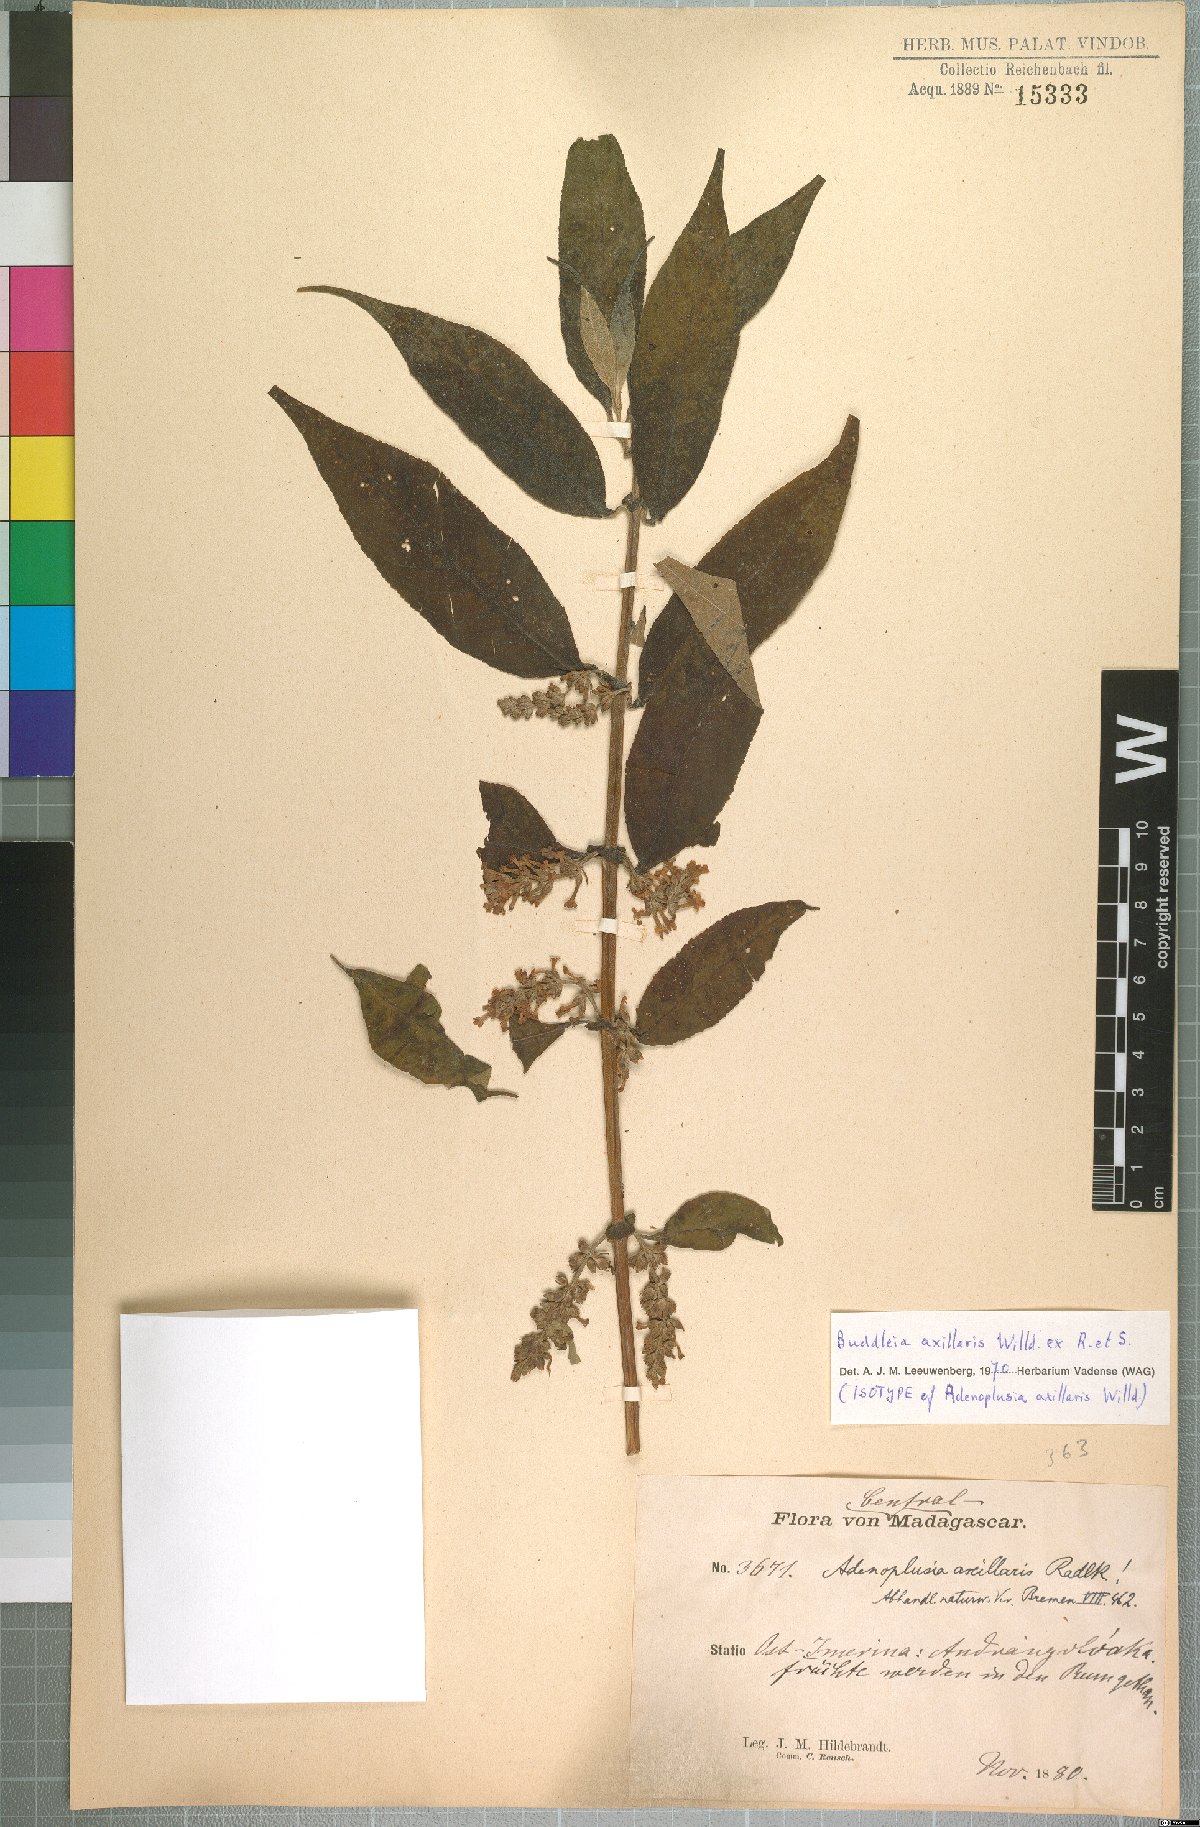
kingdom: Plantae
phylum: Tracheophyta
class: Magnoliopsida
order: Lamiales
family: Scrophulariaceae
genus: Buddleja
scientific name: Buddleja axillaris
